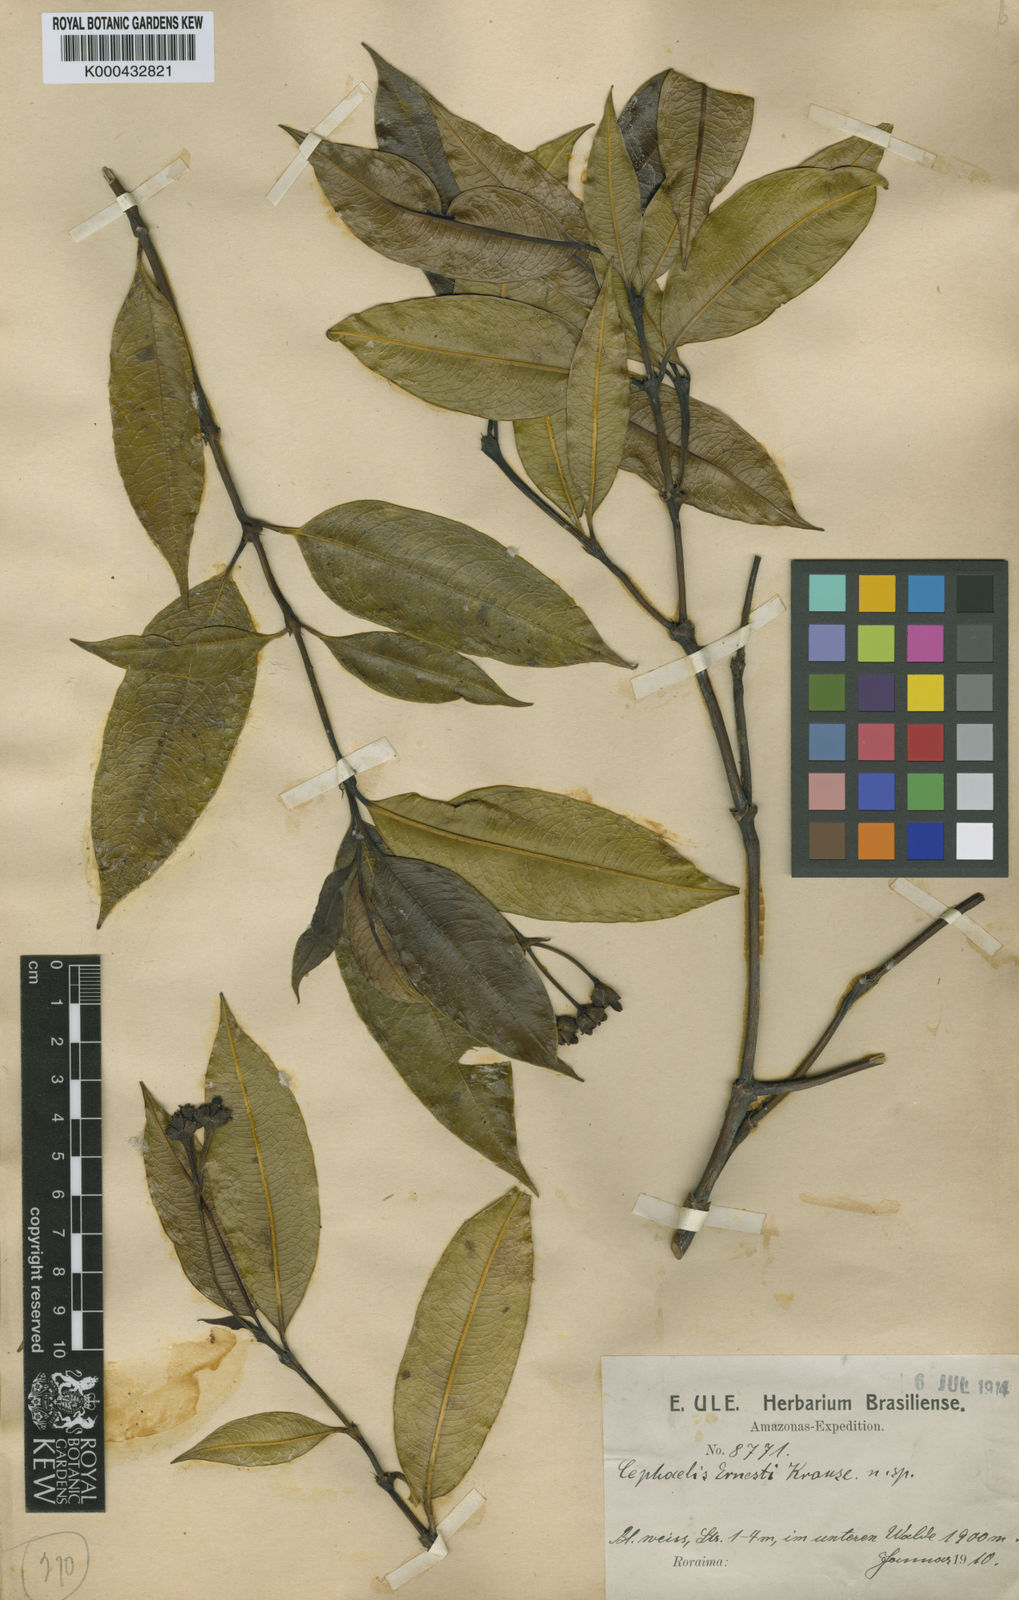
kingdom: Plantae
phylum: Tracheophyta
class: Magnoliopsida
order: Gentianales
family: Rubiaceae
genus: Palicourea
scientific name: Palicourea ernestii
